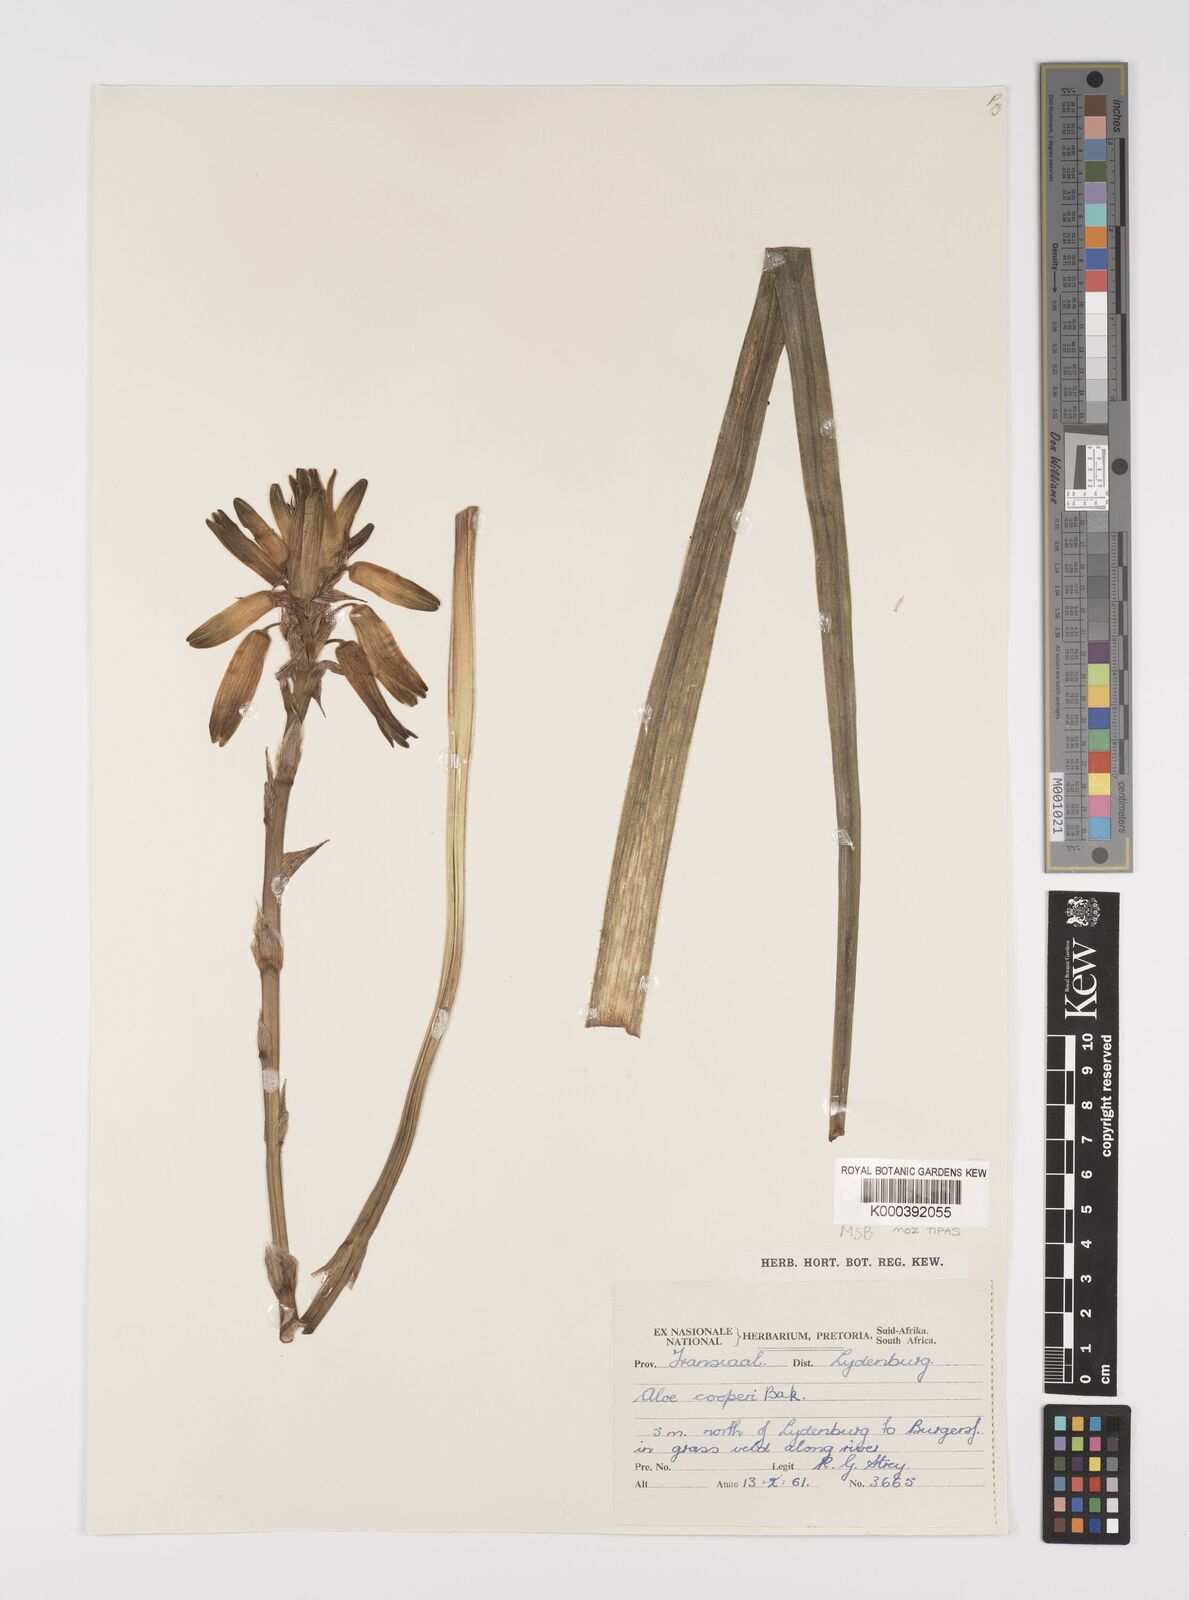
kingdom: Plantae
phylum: Tracheophyta
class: Liliopsida
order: Asparagales
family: Asphodelaceae
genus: Aloe
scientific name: Aloe cooperi
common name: Cooper's aloe
